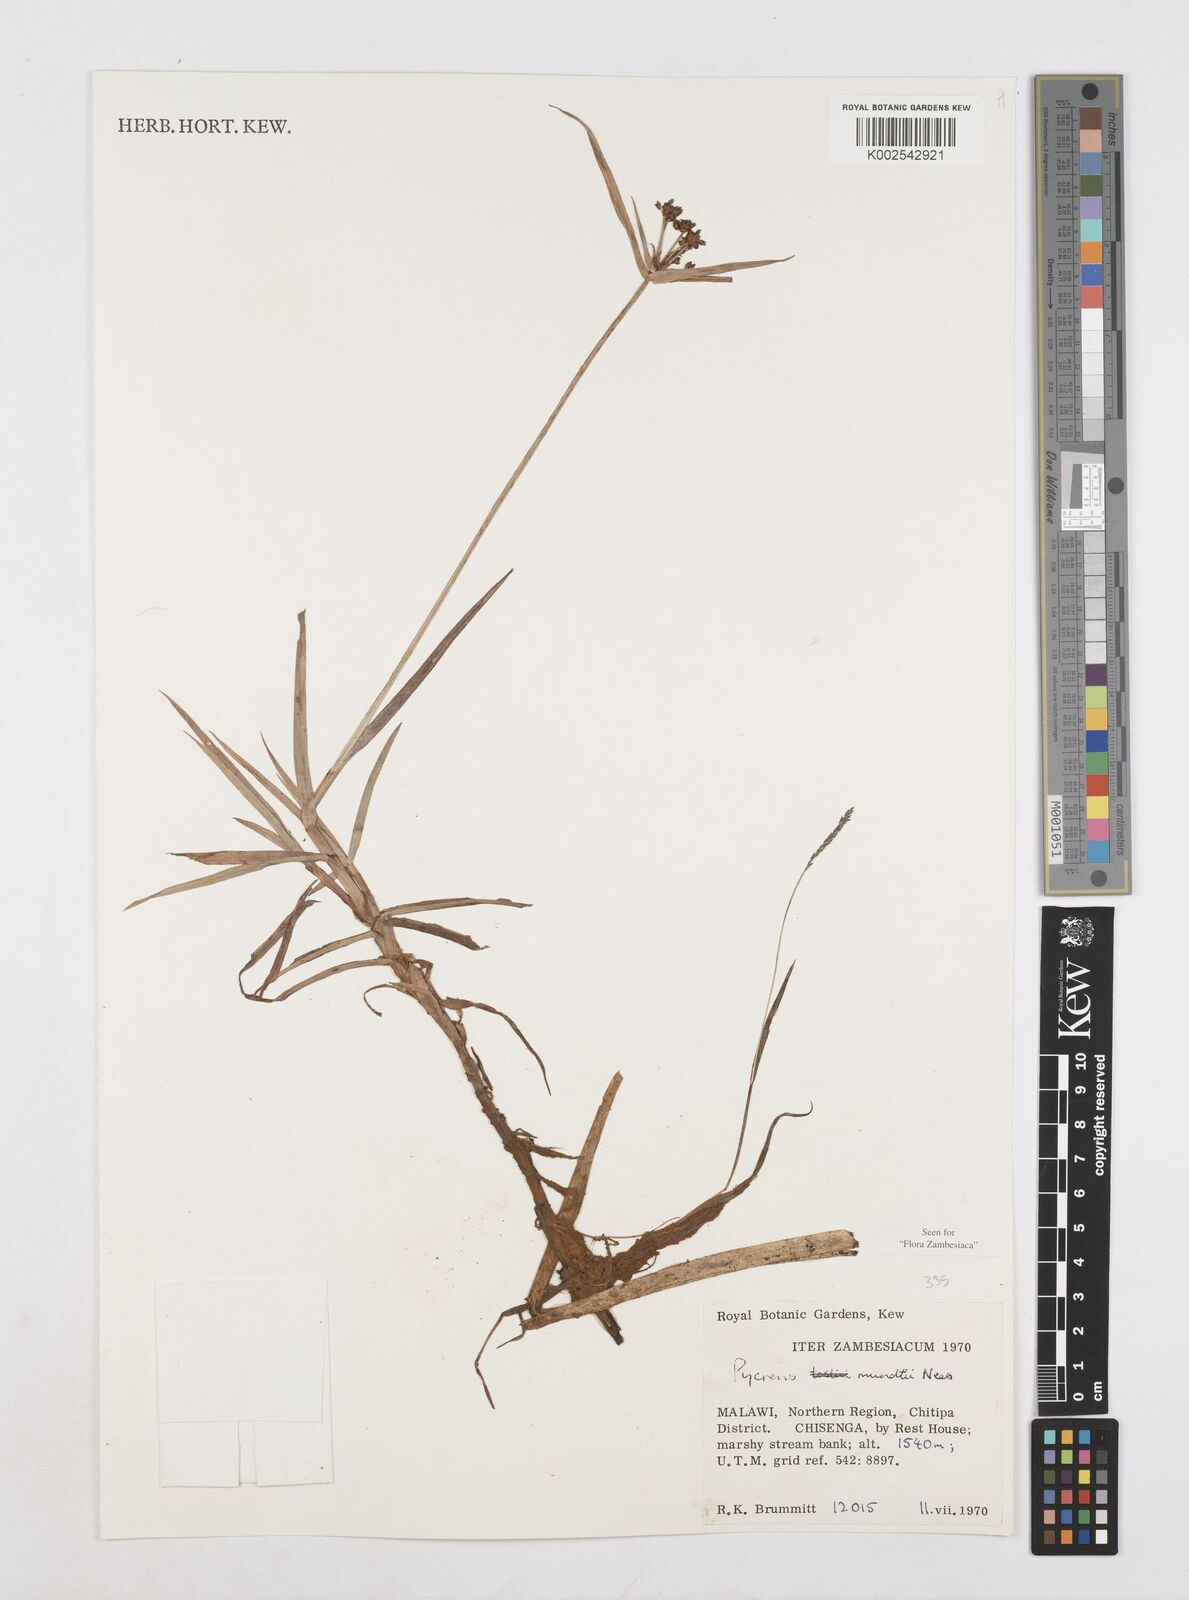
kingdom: Plantae
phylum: Tracheophyta
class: Liliopsida
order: Poales
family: Cyperaceae
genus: Cyperus
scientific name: Cyperus mundii
